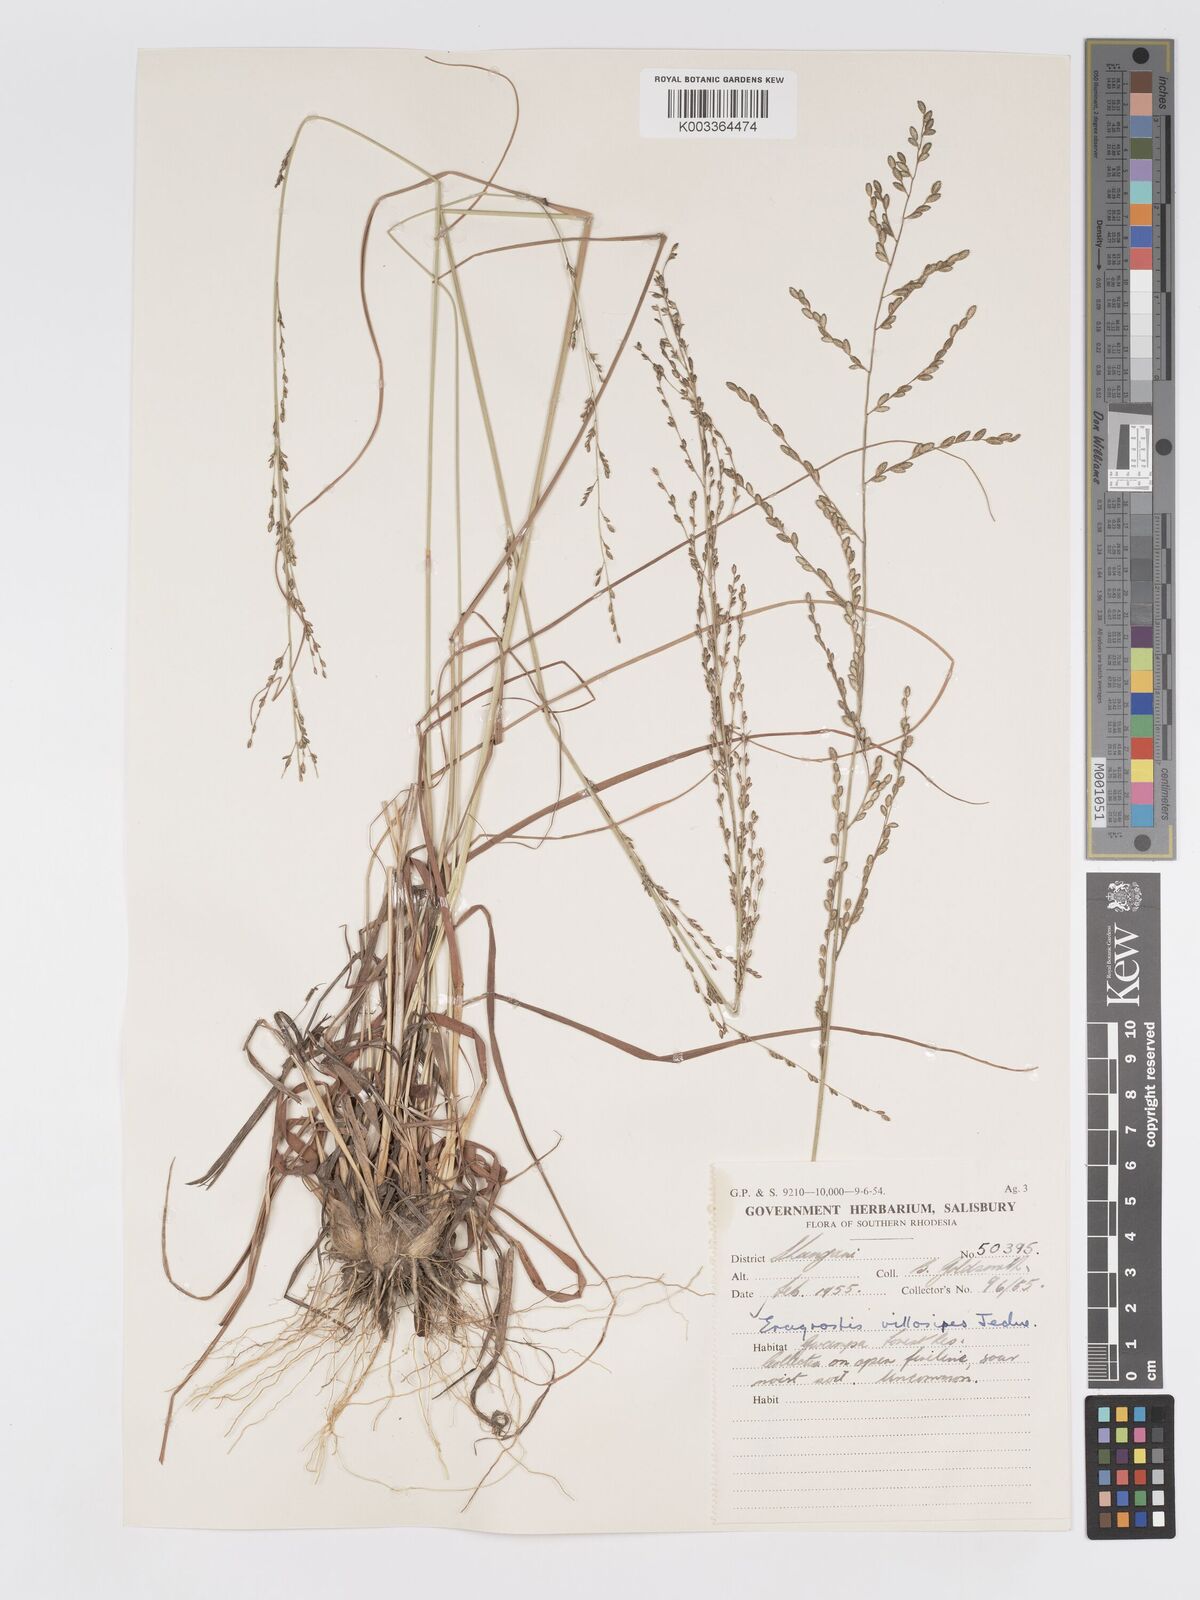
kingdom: Plantae
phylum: Tracheophyta
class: Liliopsida
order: Poales
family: Poaceae
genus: Eragrostis
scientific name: Eragrostis sclerantha
